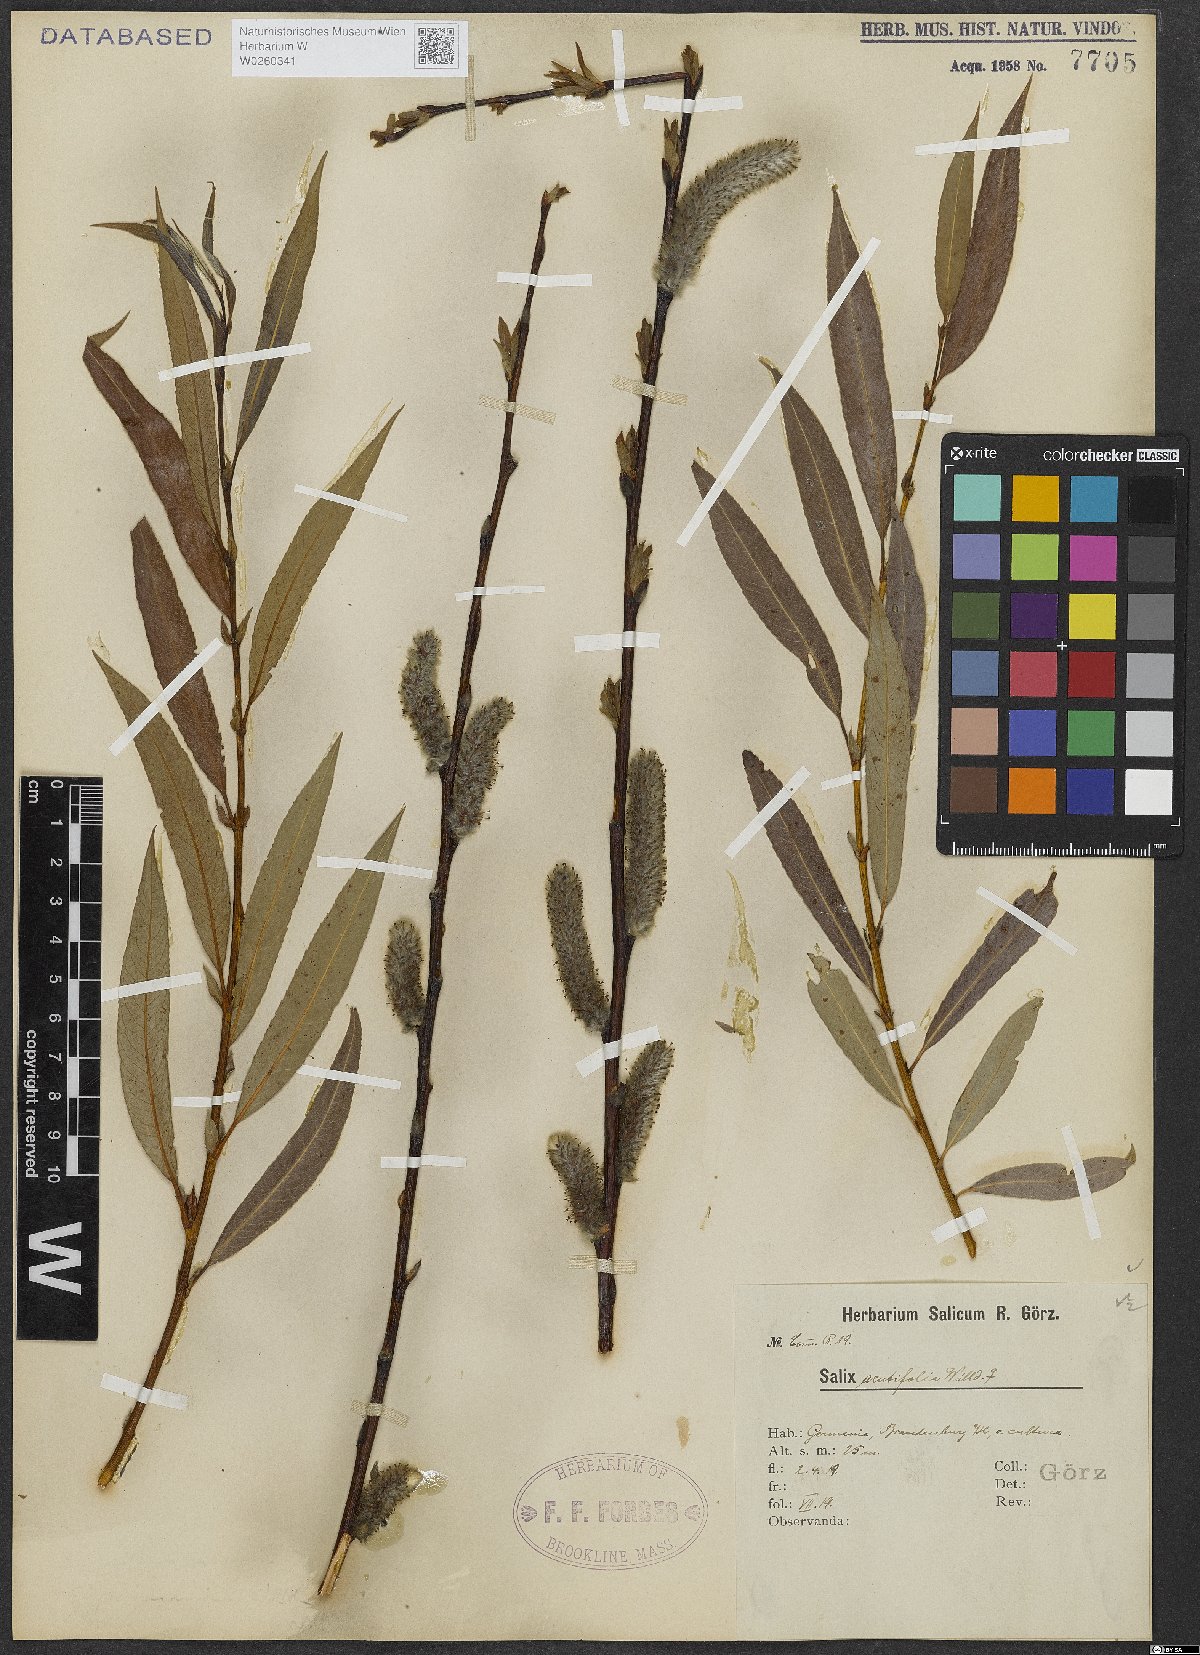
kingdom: Plantae
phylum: Tracheophyta
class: Magnoliopsida
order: Malpighiales
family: Salicaceae
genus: Salix
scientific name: Salix acutifolia
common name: Siberian violet-willow
